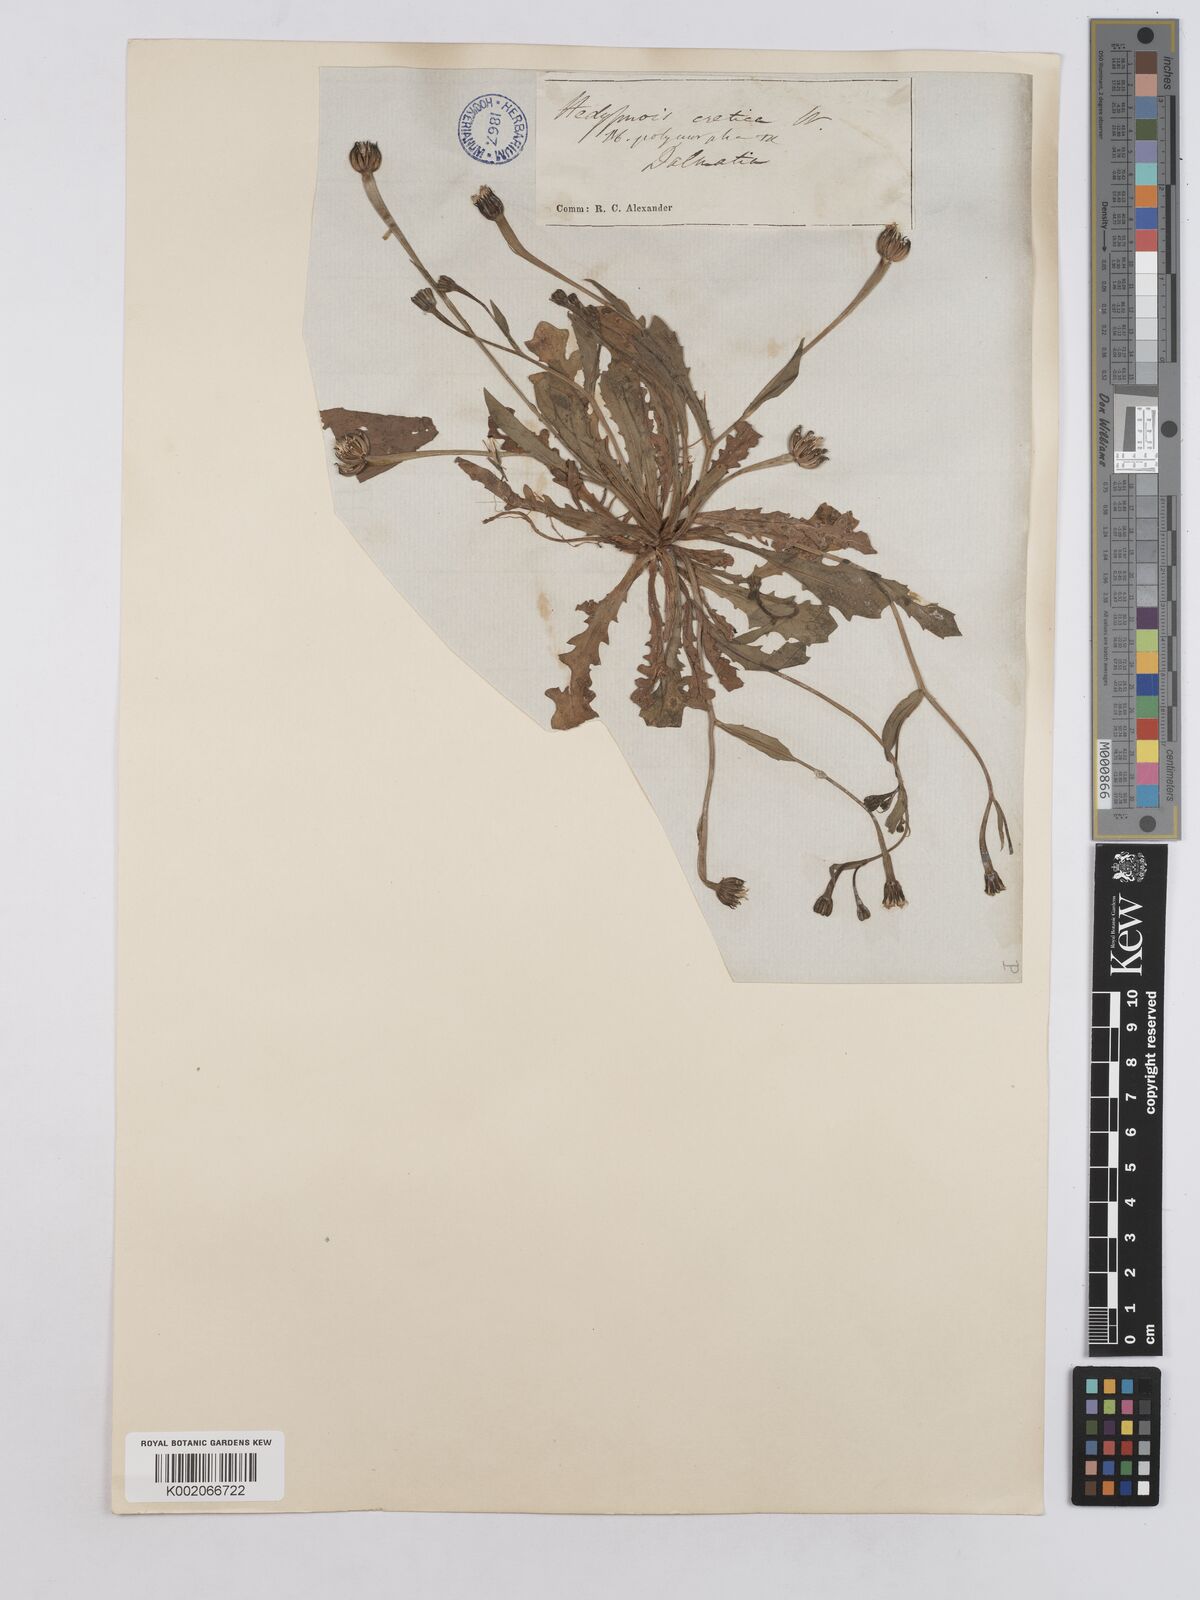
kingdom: Plantae
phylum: Tracheophyta
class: Magnoliopsida
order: Asterales
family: Asteraceae
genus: Hedypnois
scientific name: Hedypnois rhagadioloides
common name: Cretan weed
